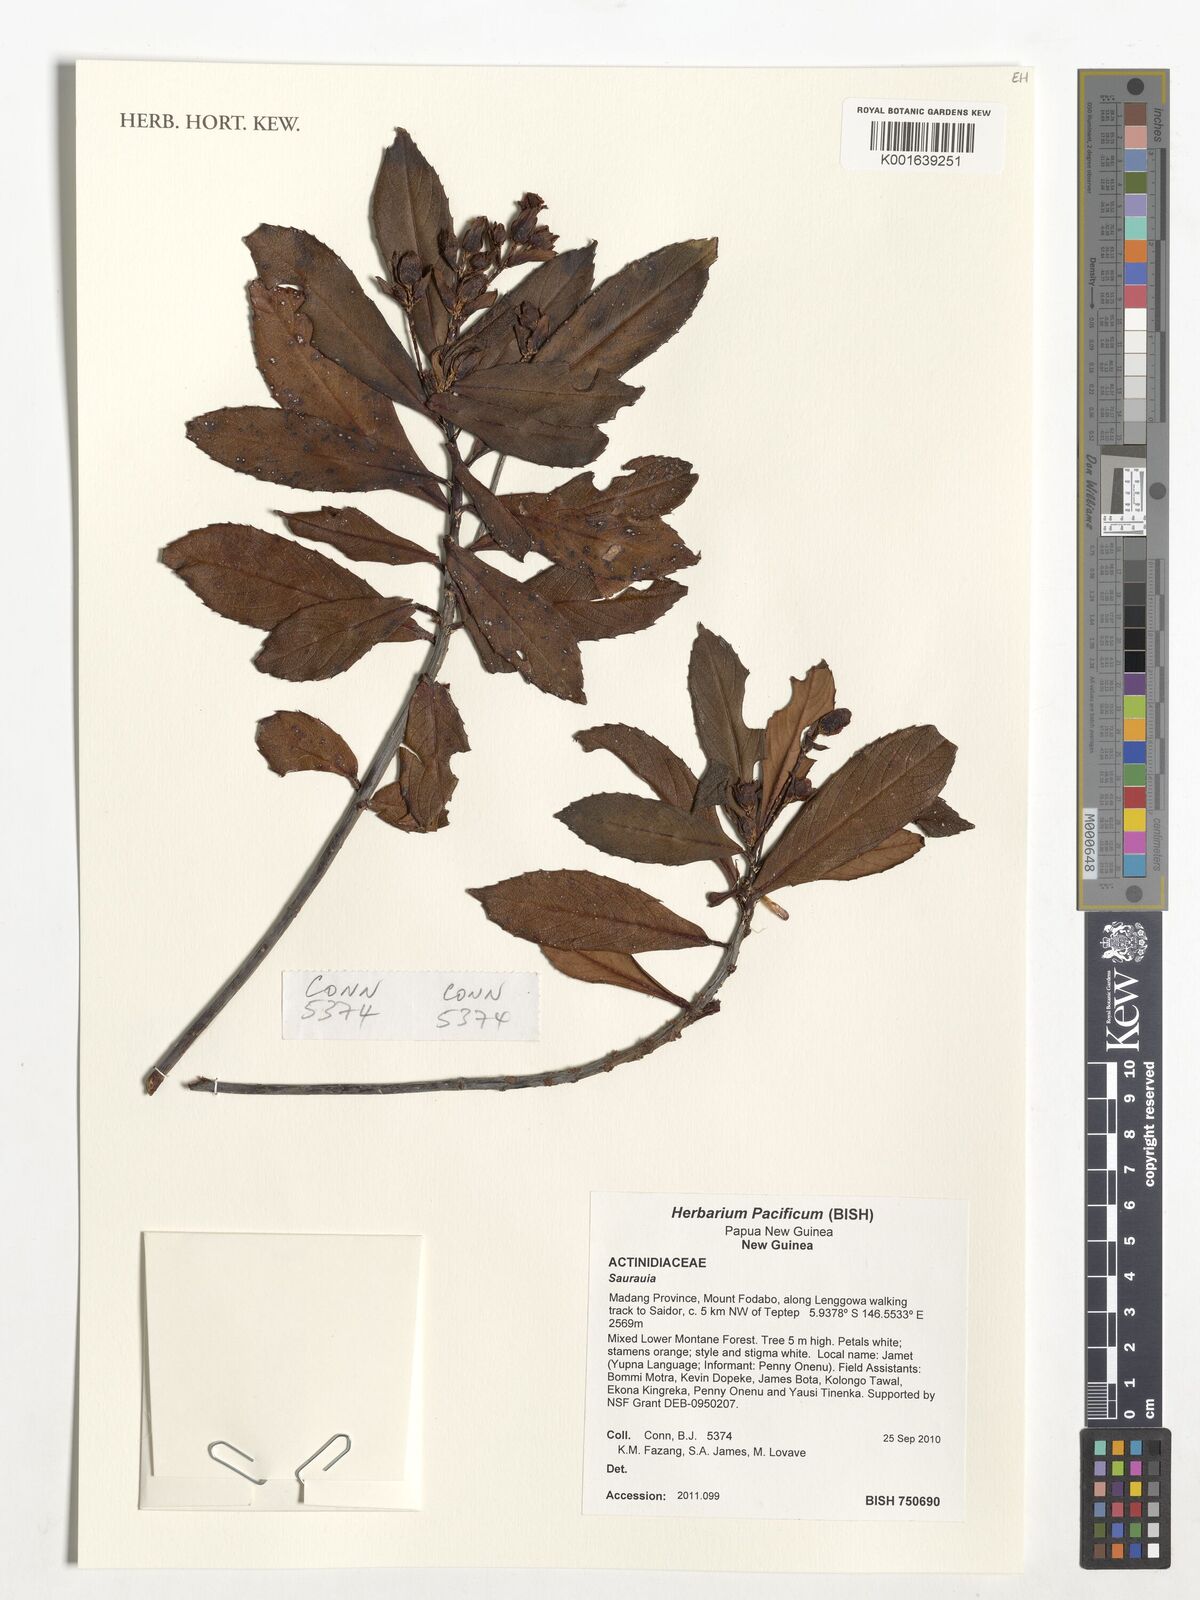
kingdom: Plantae
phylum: Tracheophyta
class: Magnoliopsida
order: Ericales
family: Actinidiaceae
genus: Saurauia
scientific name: Saurauia
